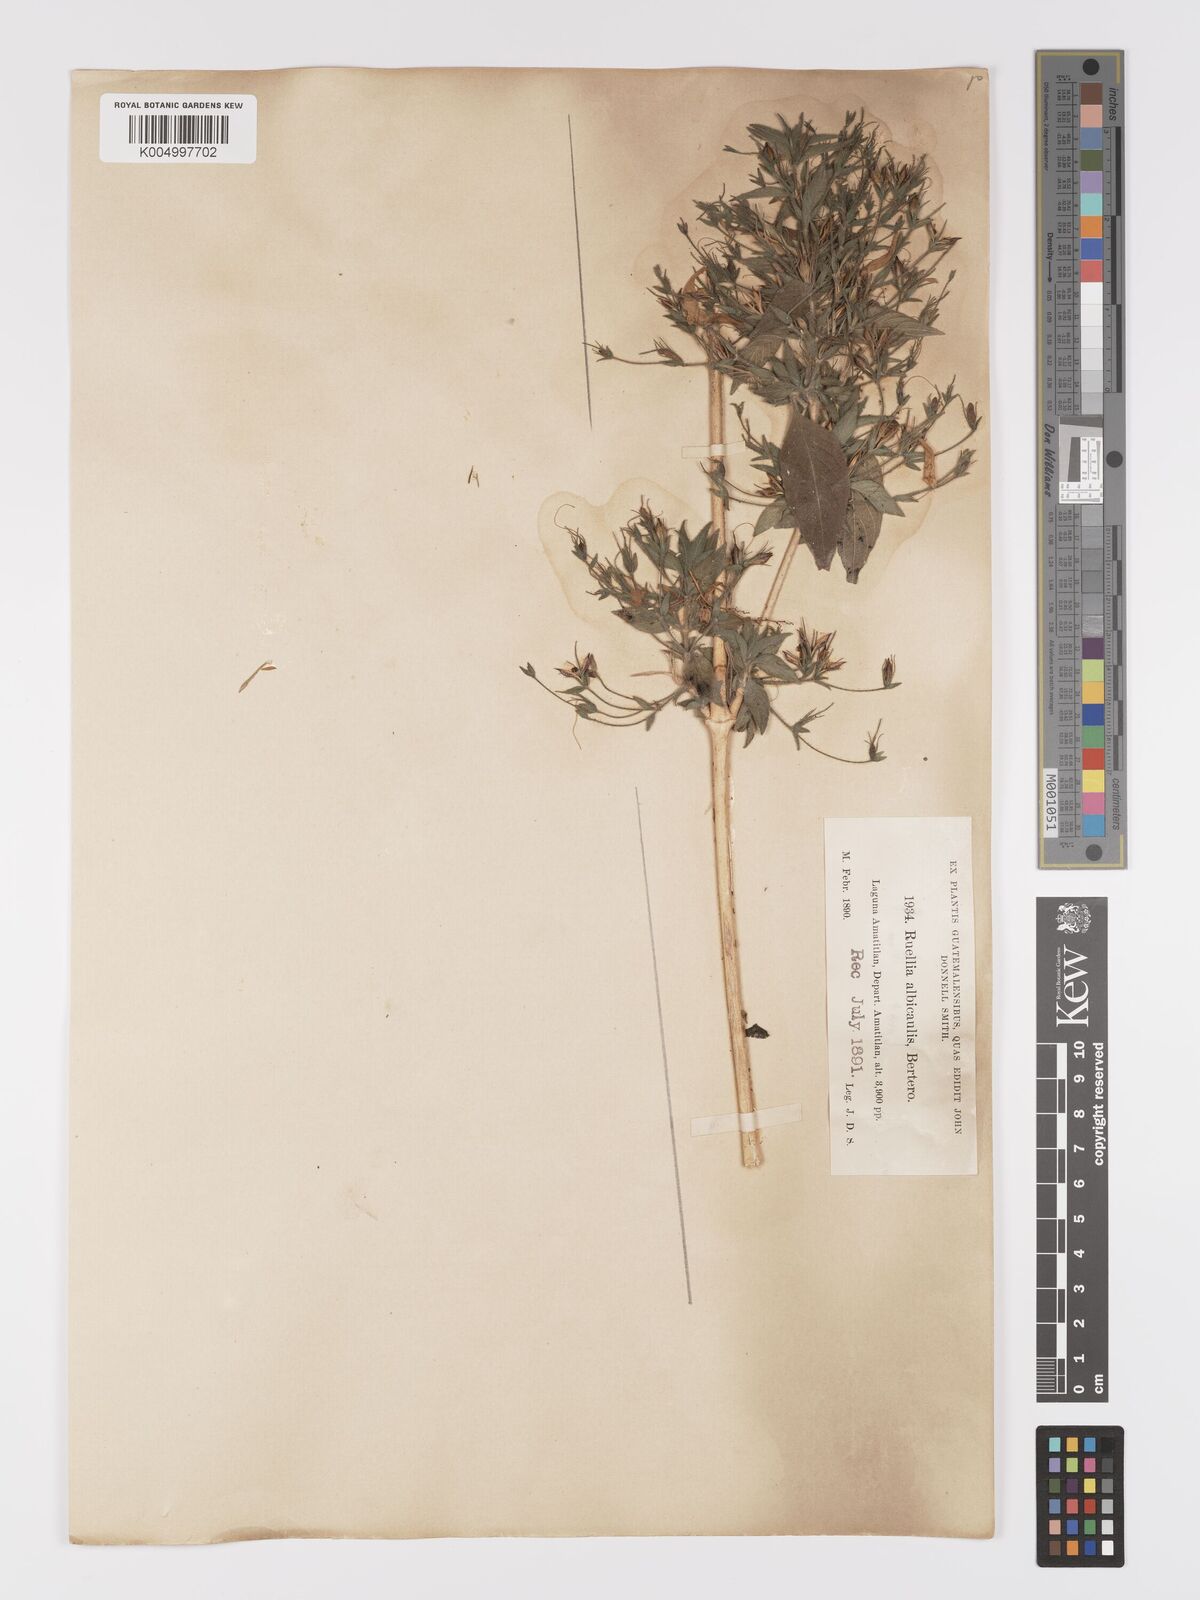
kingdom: Plantae
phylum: Tracheophyta
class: Magnoliopsida
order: Lamiales
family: Acanthaceae
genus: Ruellia
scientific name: Ruellia inundata
